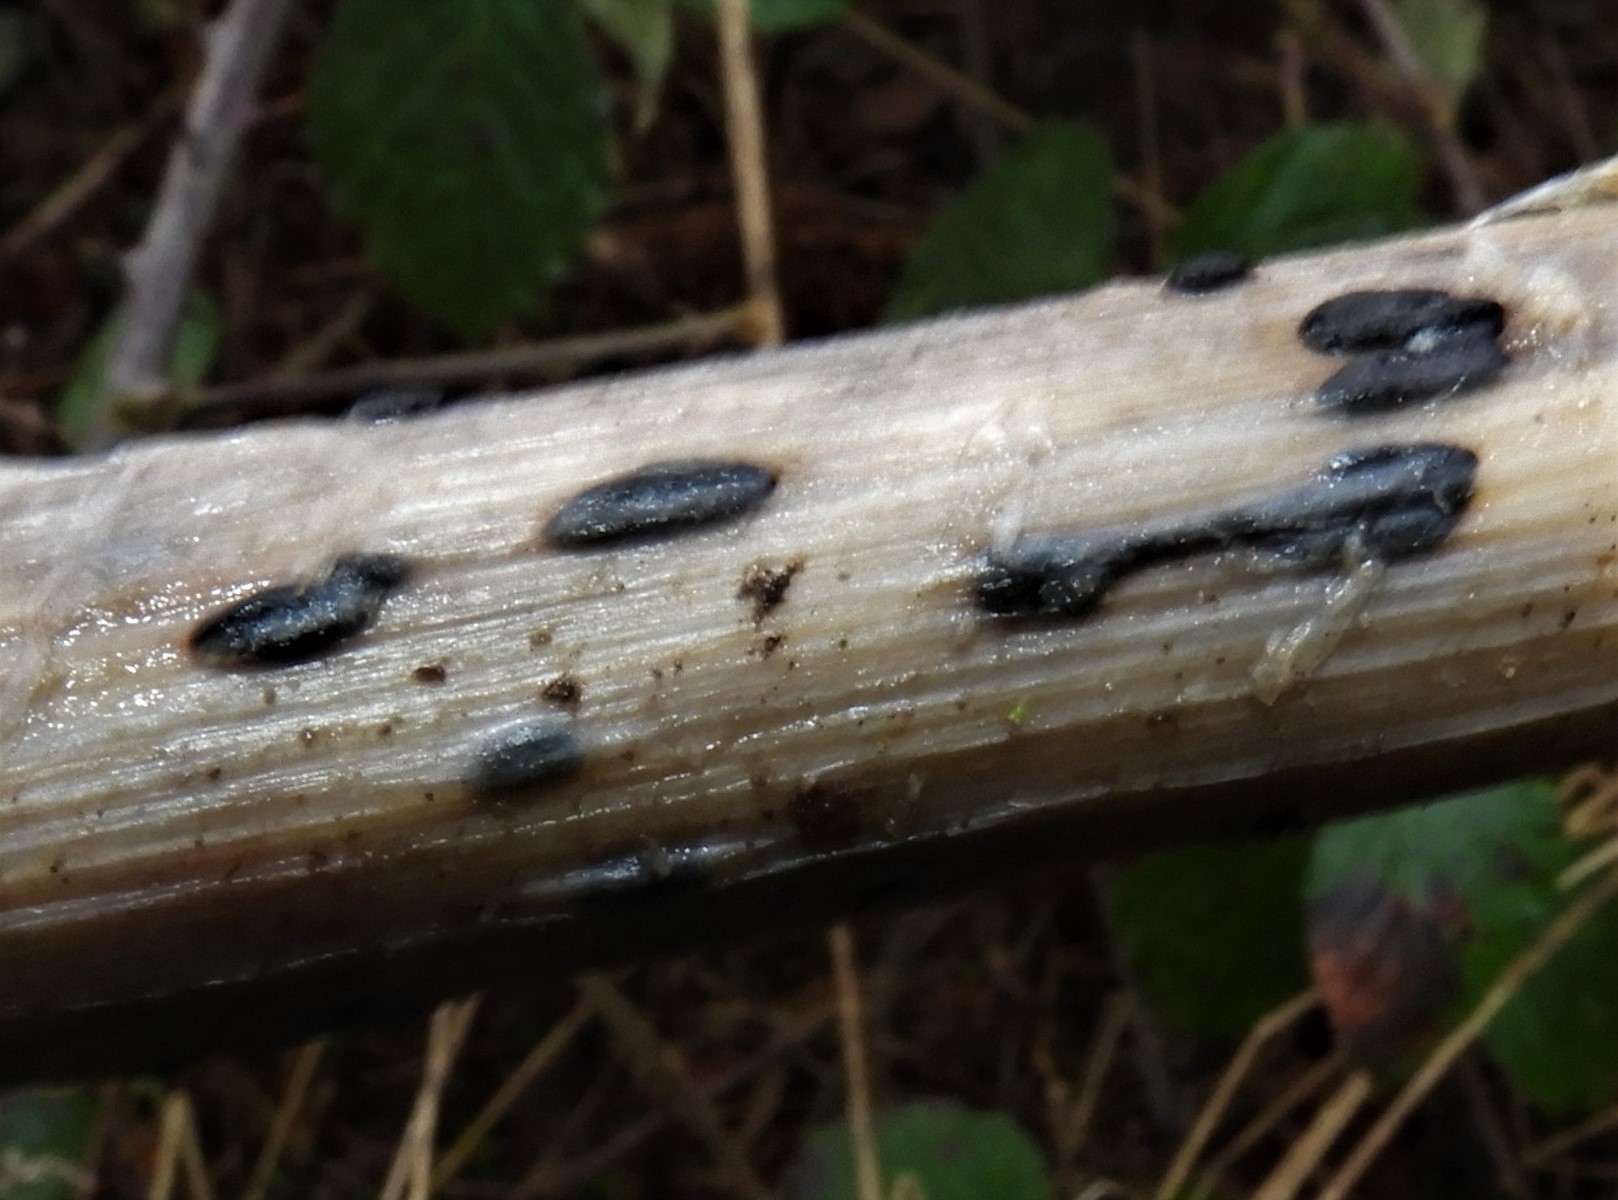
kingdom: Fungi
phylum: Basidiomycota
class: Agaricomycetes
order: Agaricales
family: Typhulaceae
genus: Sclerotium
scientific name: Sclerotium
